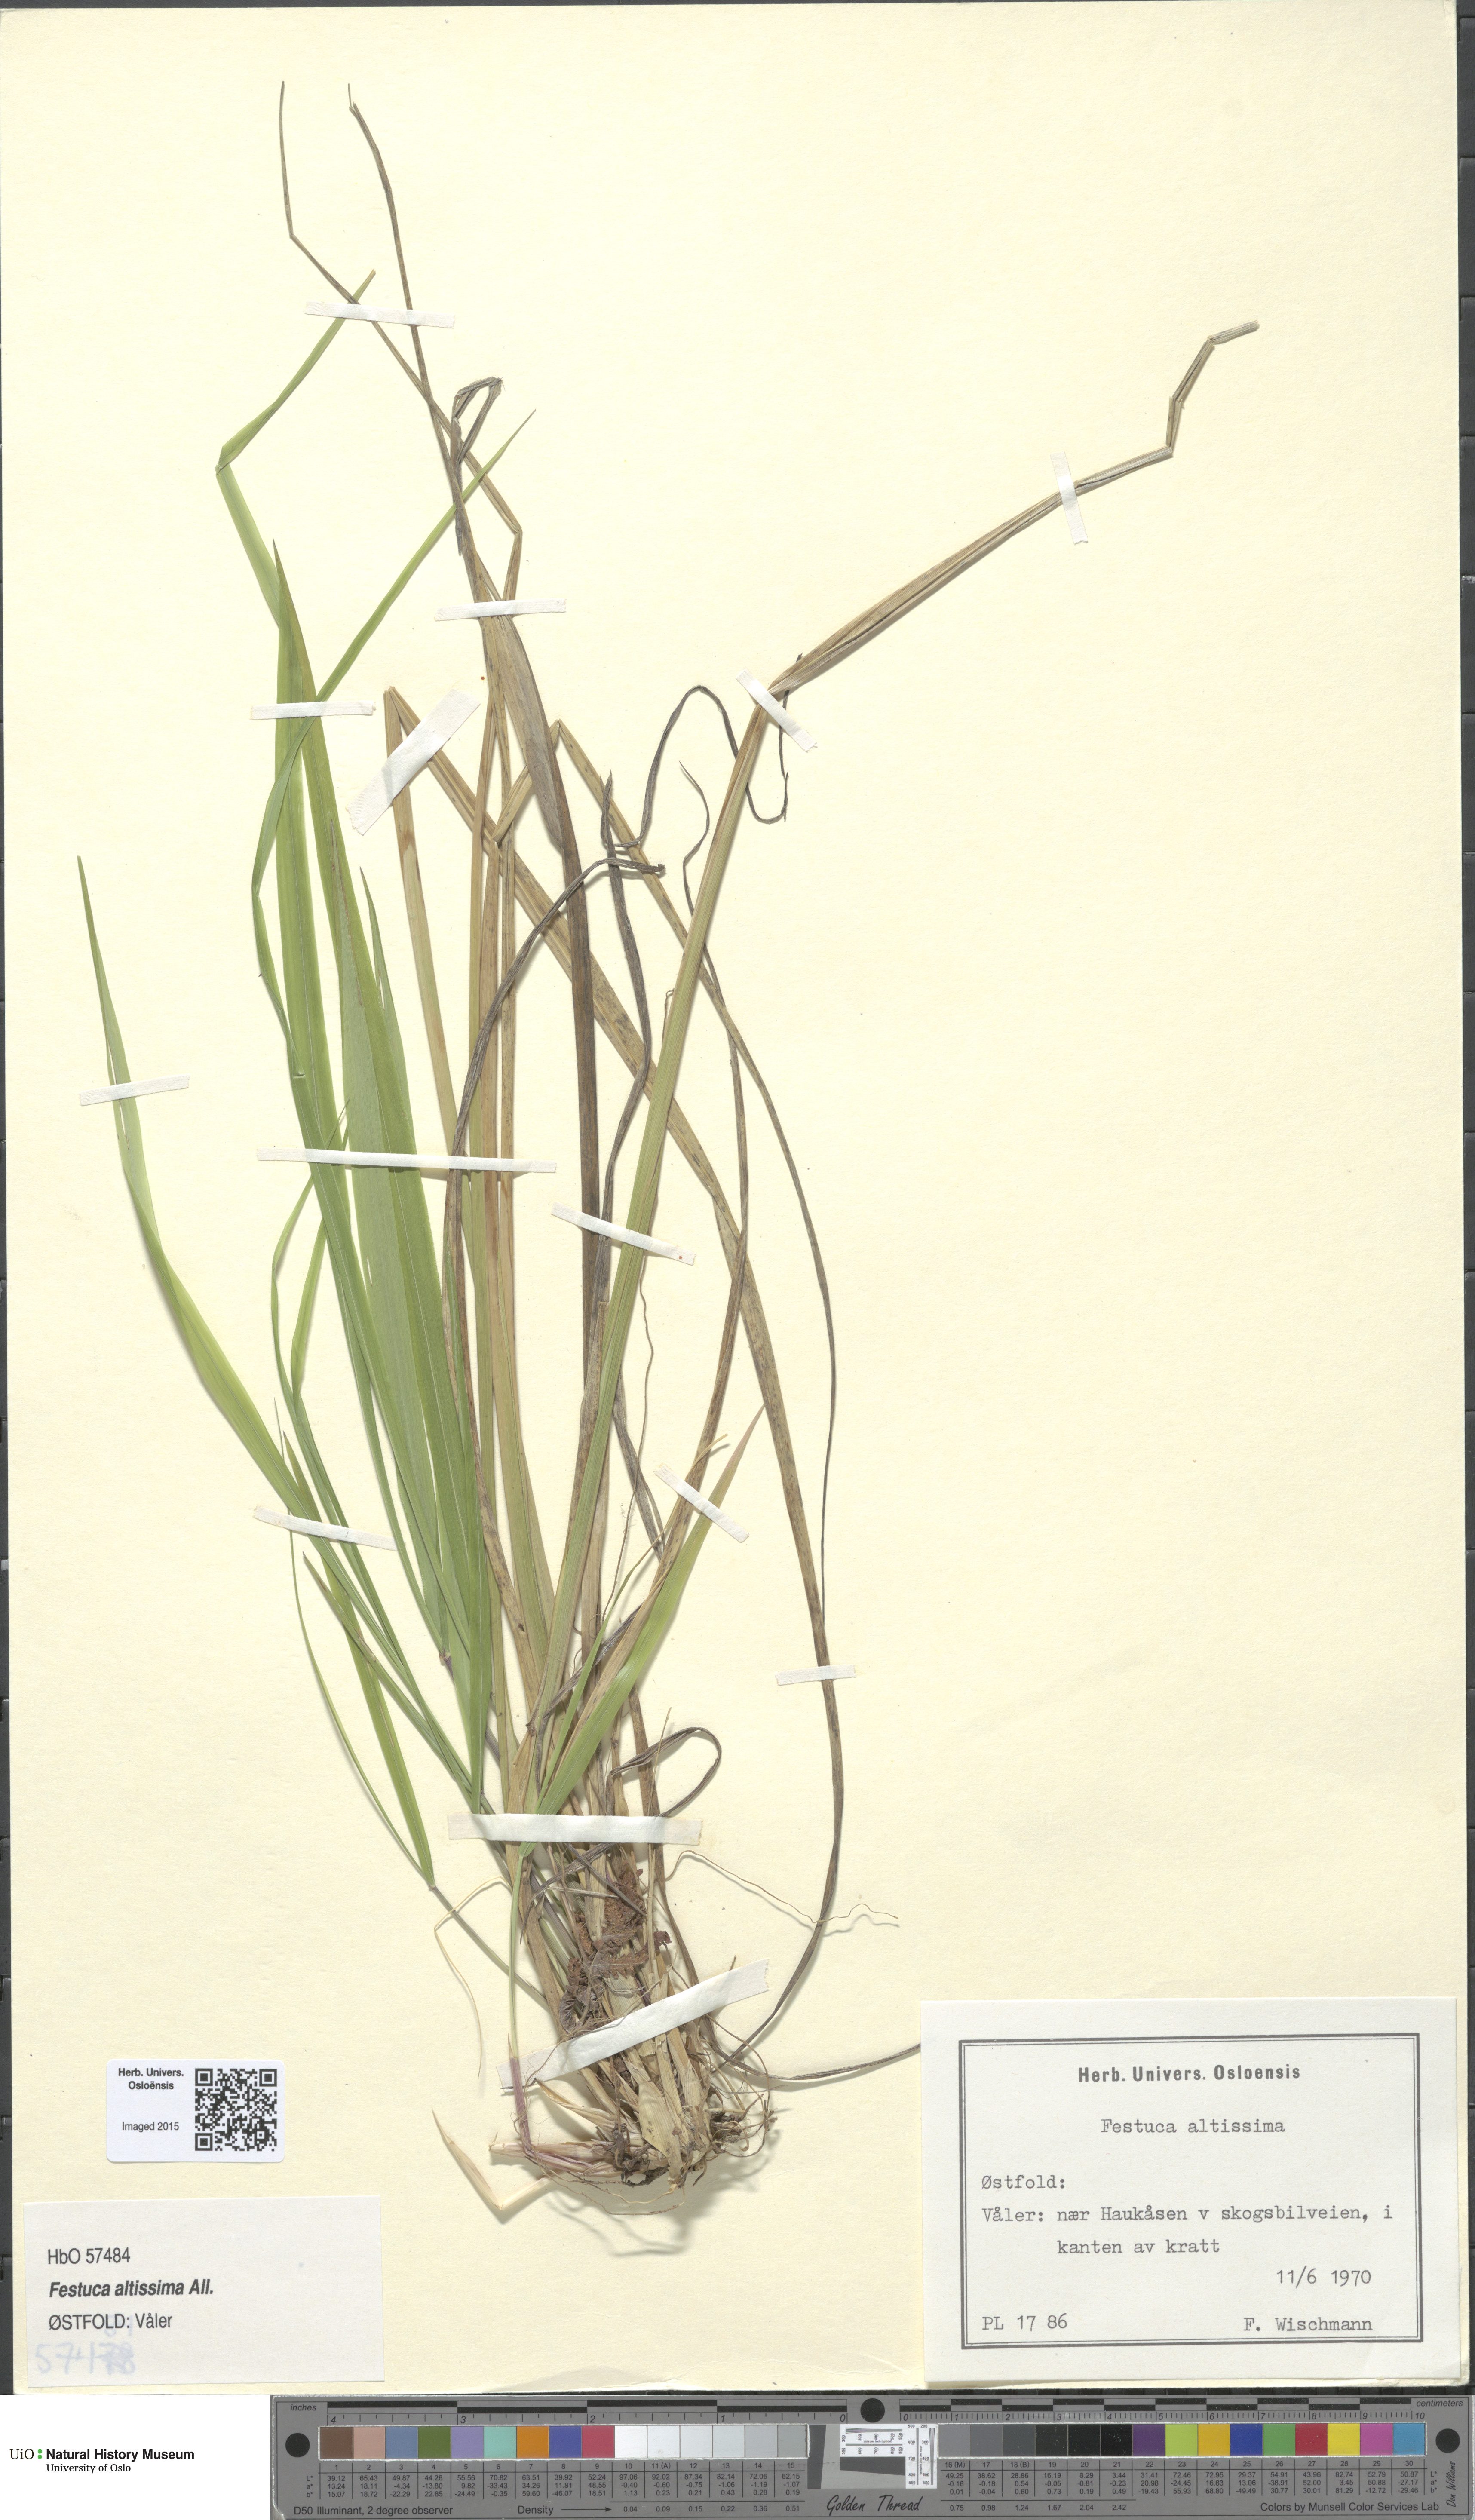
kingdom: Plantae
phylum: Tracheophyta
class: Liliopsida
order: Poales
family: Poaceae
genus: Festuca
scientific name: Festuca altissima
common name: Wood fescue
